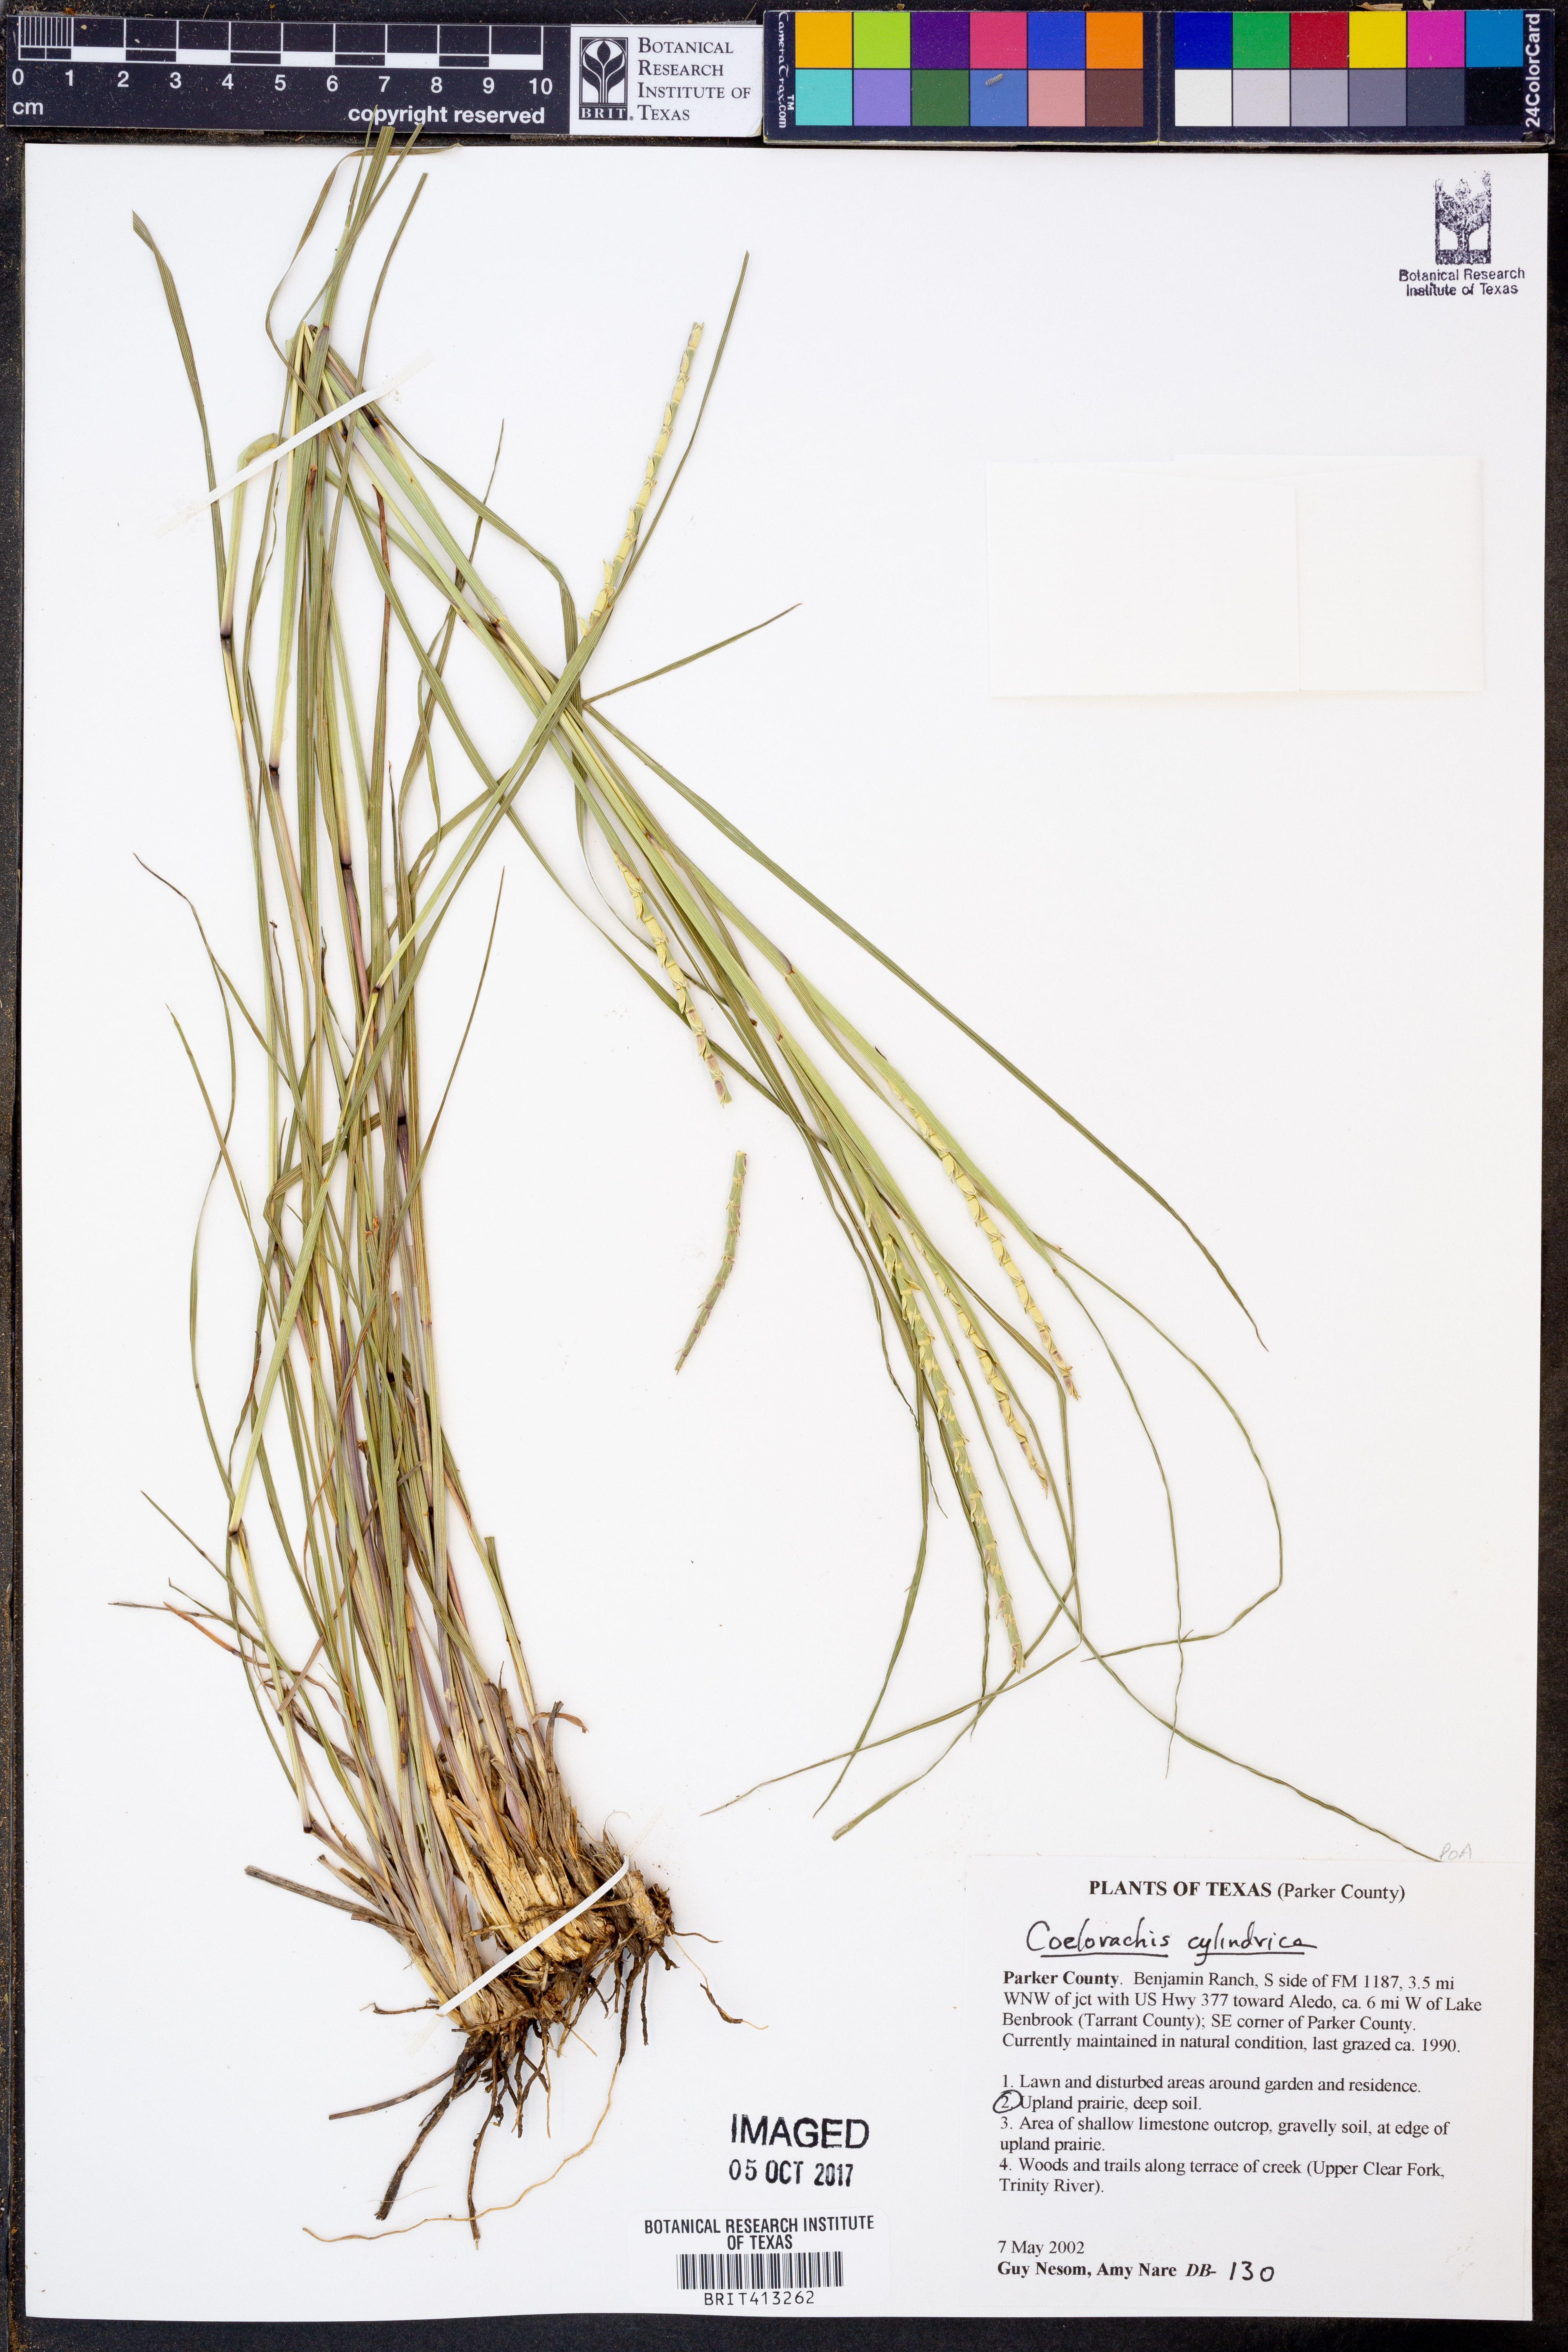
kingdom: Plantae
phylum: Tracheophyta
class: Liliopsida
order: Poales
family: Poaceae
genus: Rottboellia
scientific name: Rottboellia campestris
